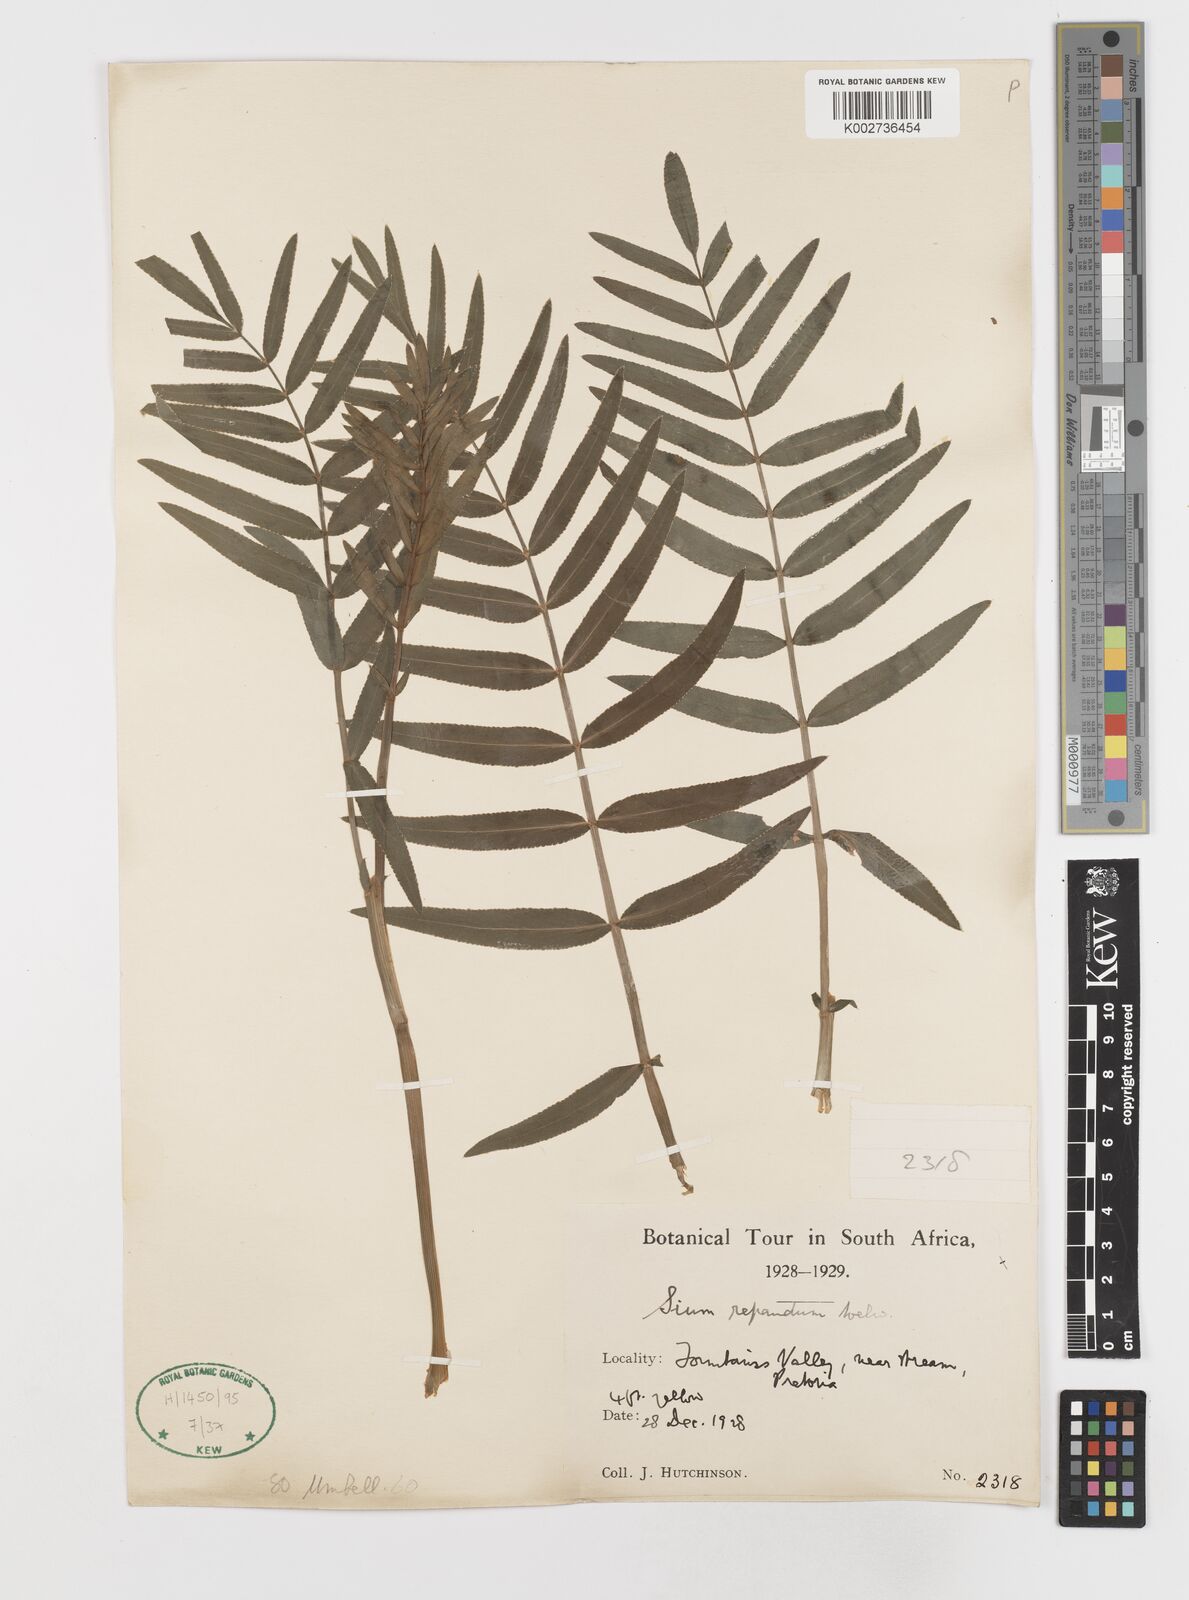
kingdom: Plantae
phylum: Tracheophyta
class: Magnoliopsida
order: Apiales
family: Apiaceae
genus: Berula
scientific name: Berula repanda
